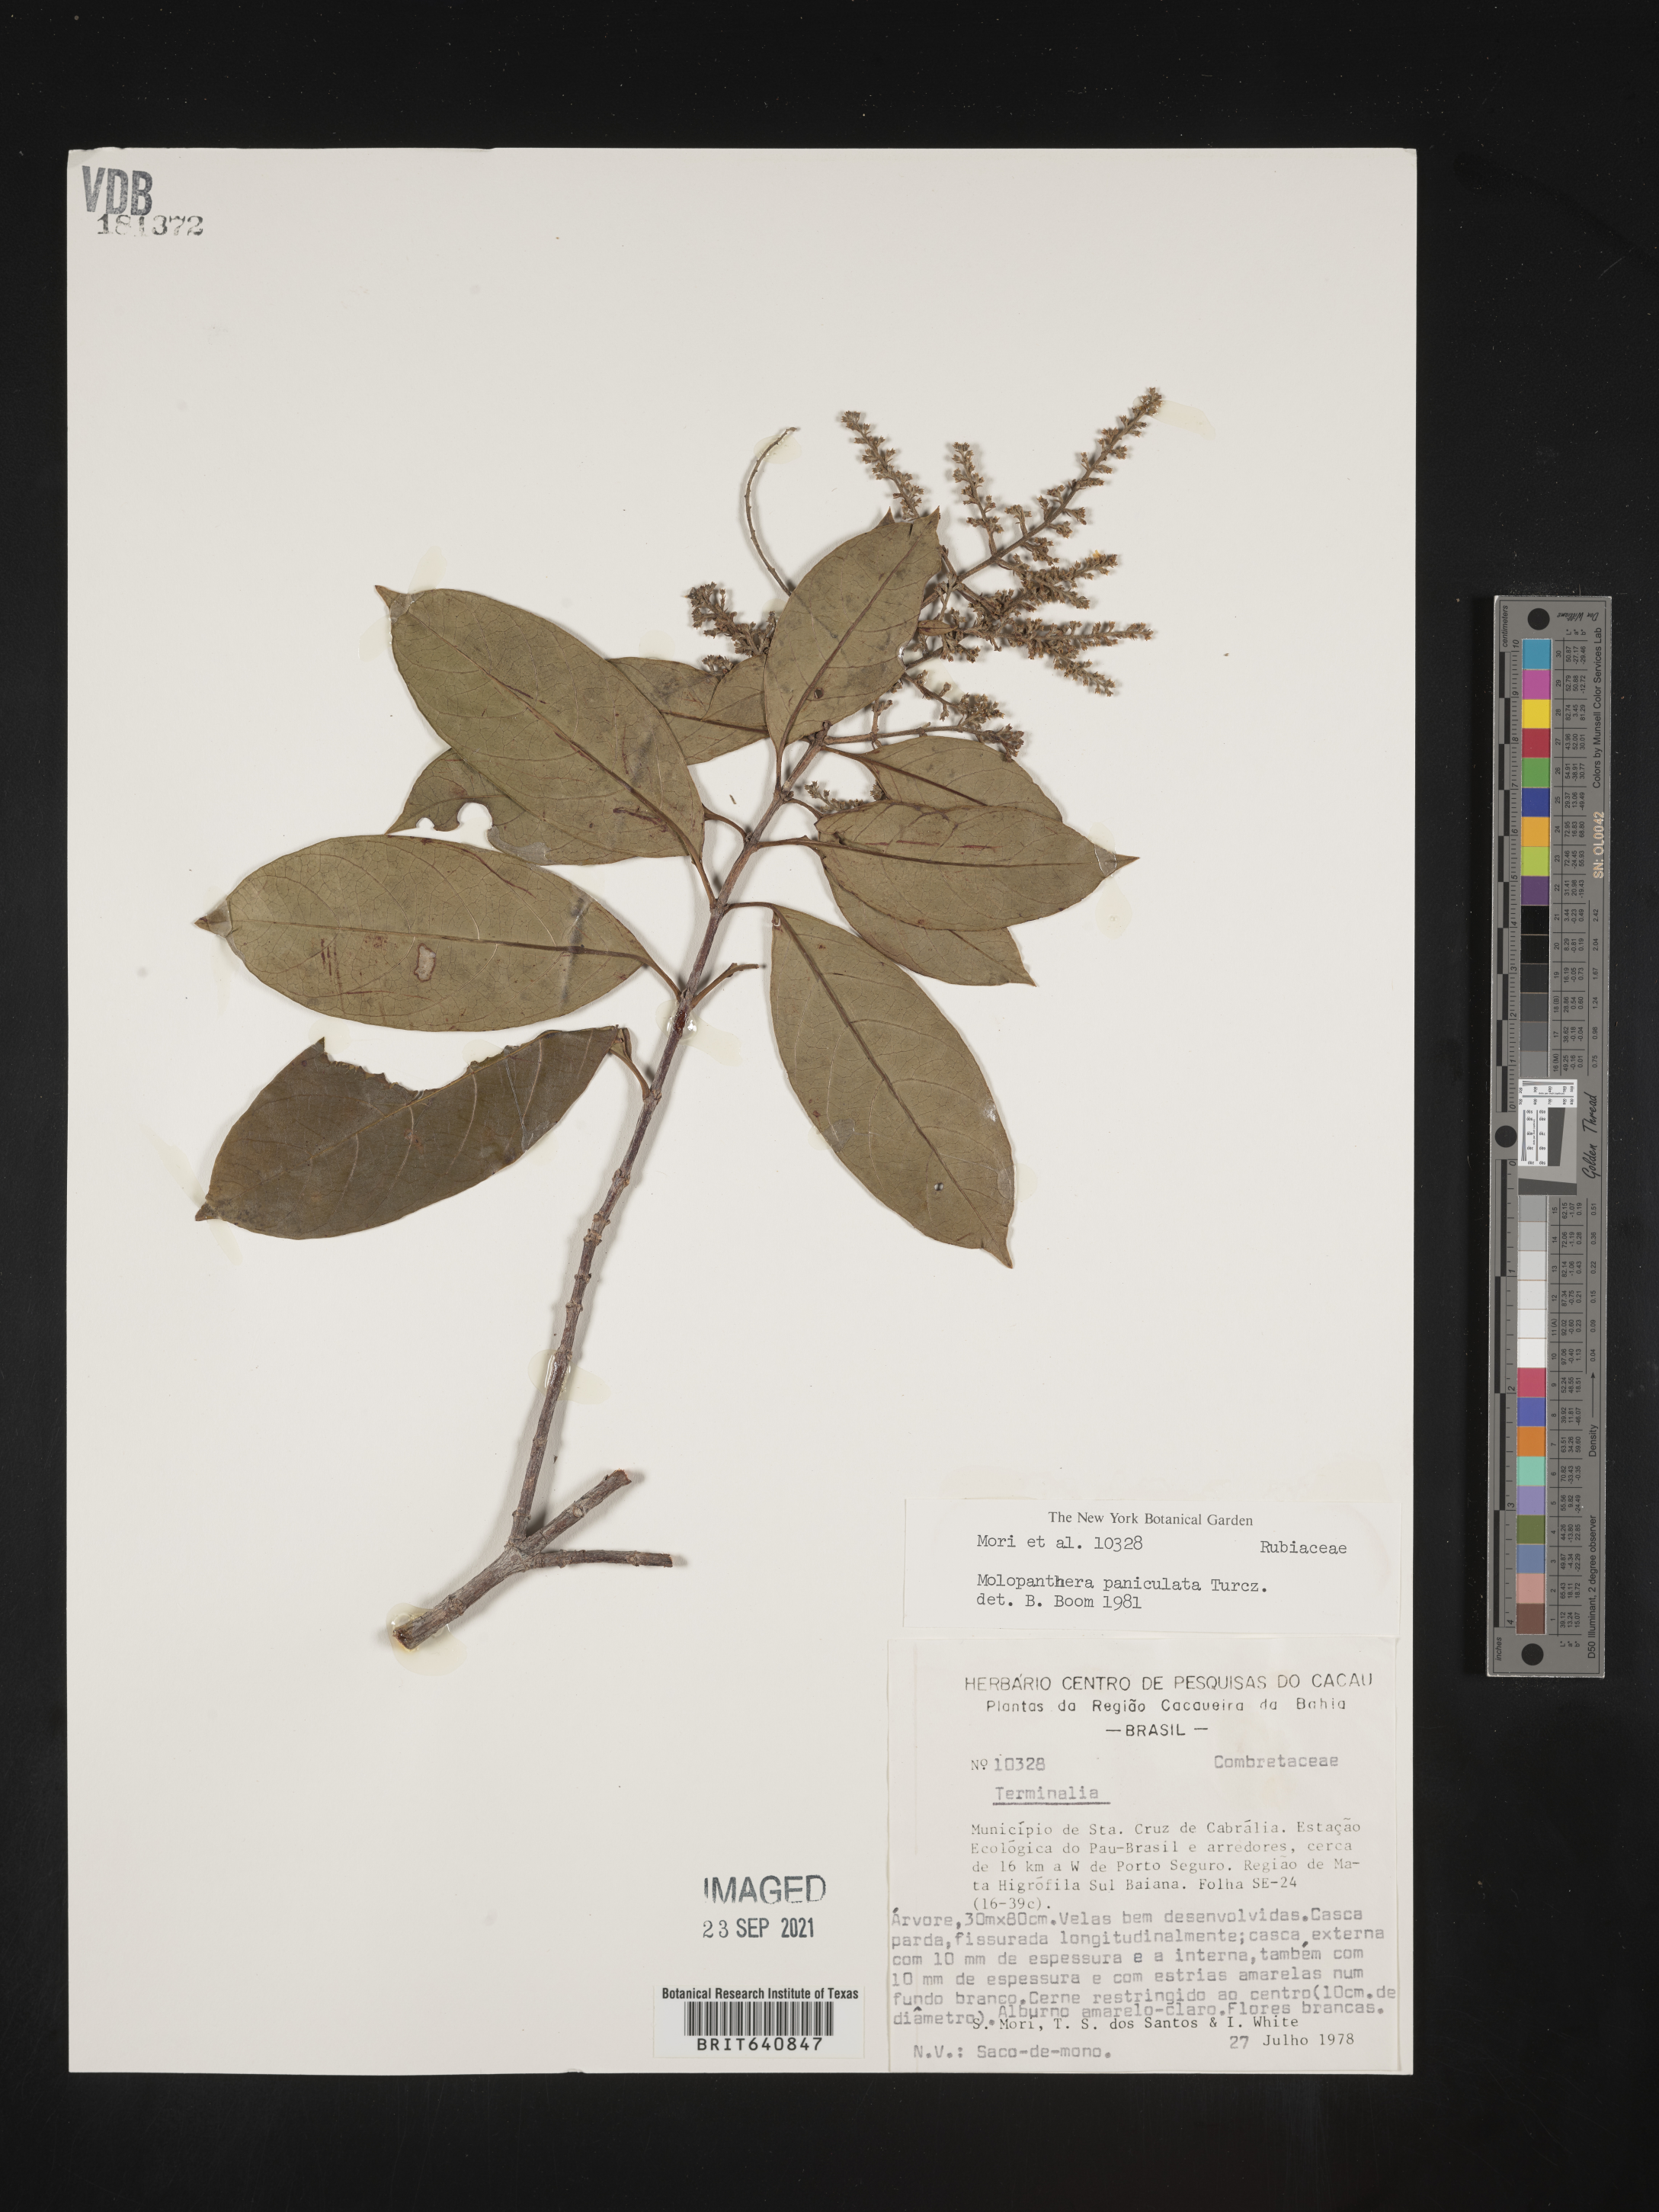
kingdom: Plantae
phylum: Tracheophyta
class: Magnoliopsida
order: Gentianales
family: Rubiaceae
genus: Molopanthera
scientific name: Molopanthera
